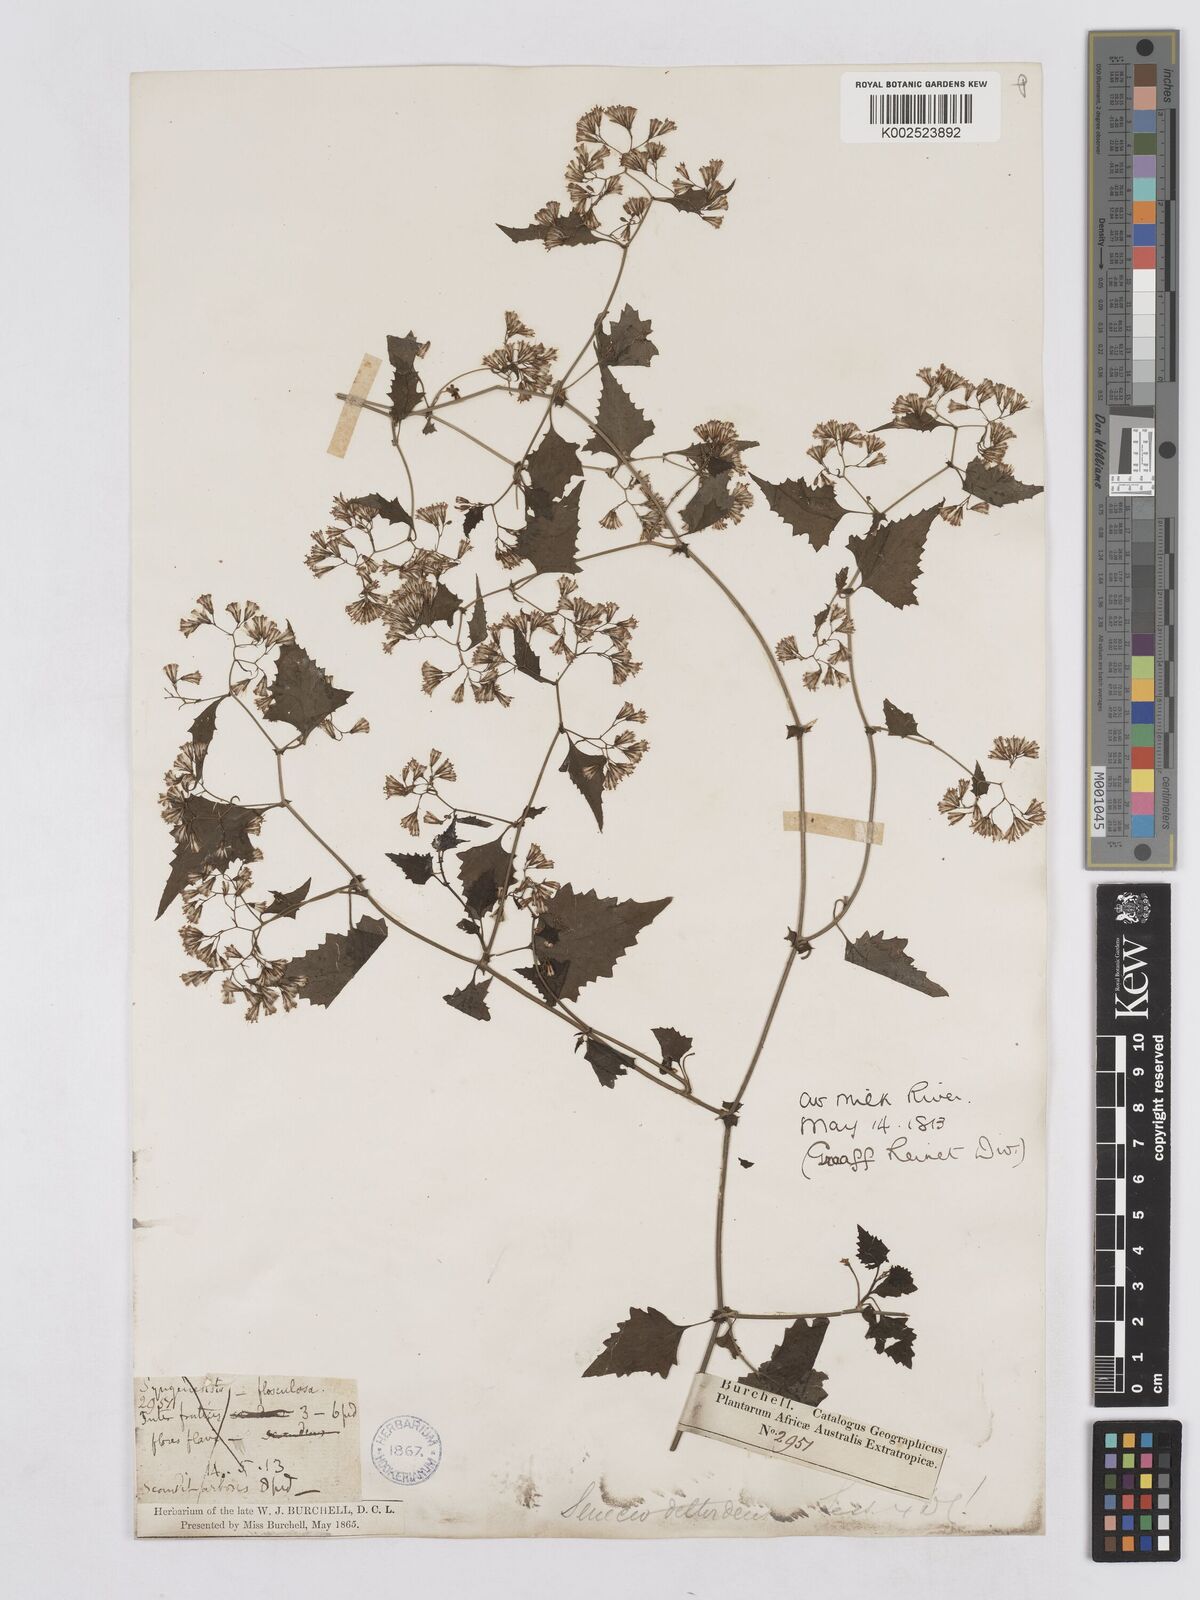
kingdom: Plantae
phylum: Tracheophyta
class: Magnoliopsida
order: Asterales
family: Asteraceae
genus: Senecio
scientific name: Senecio deltoideus
